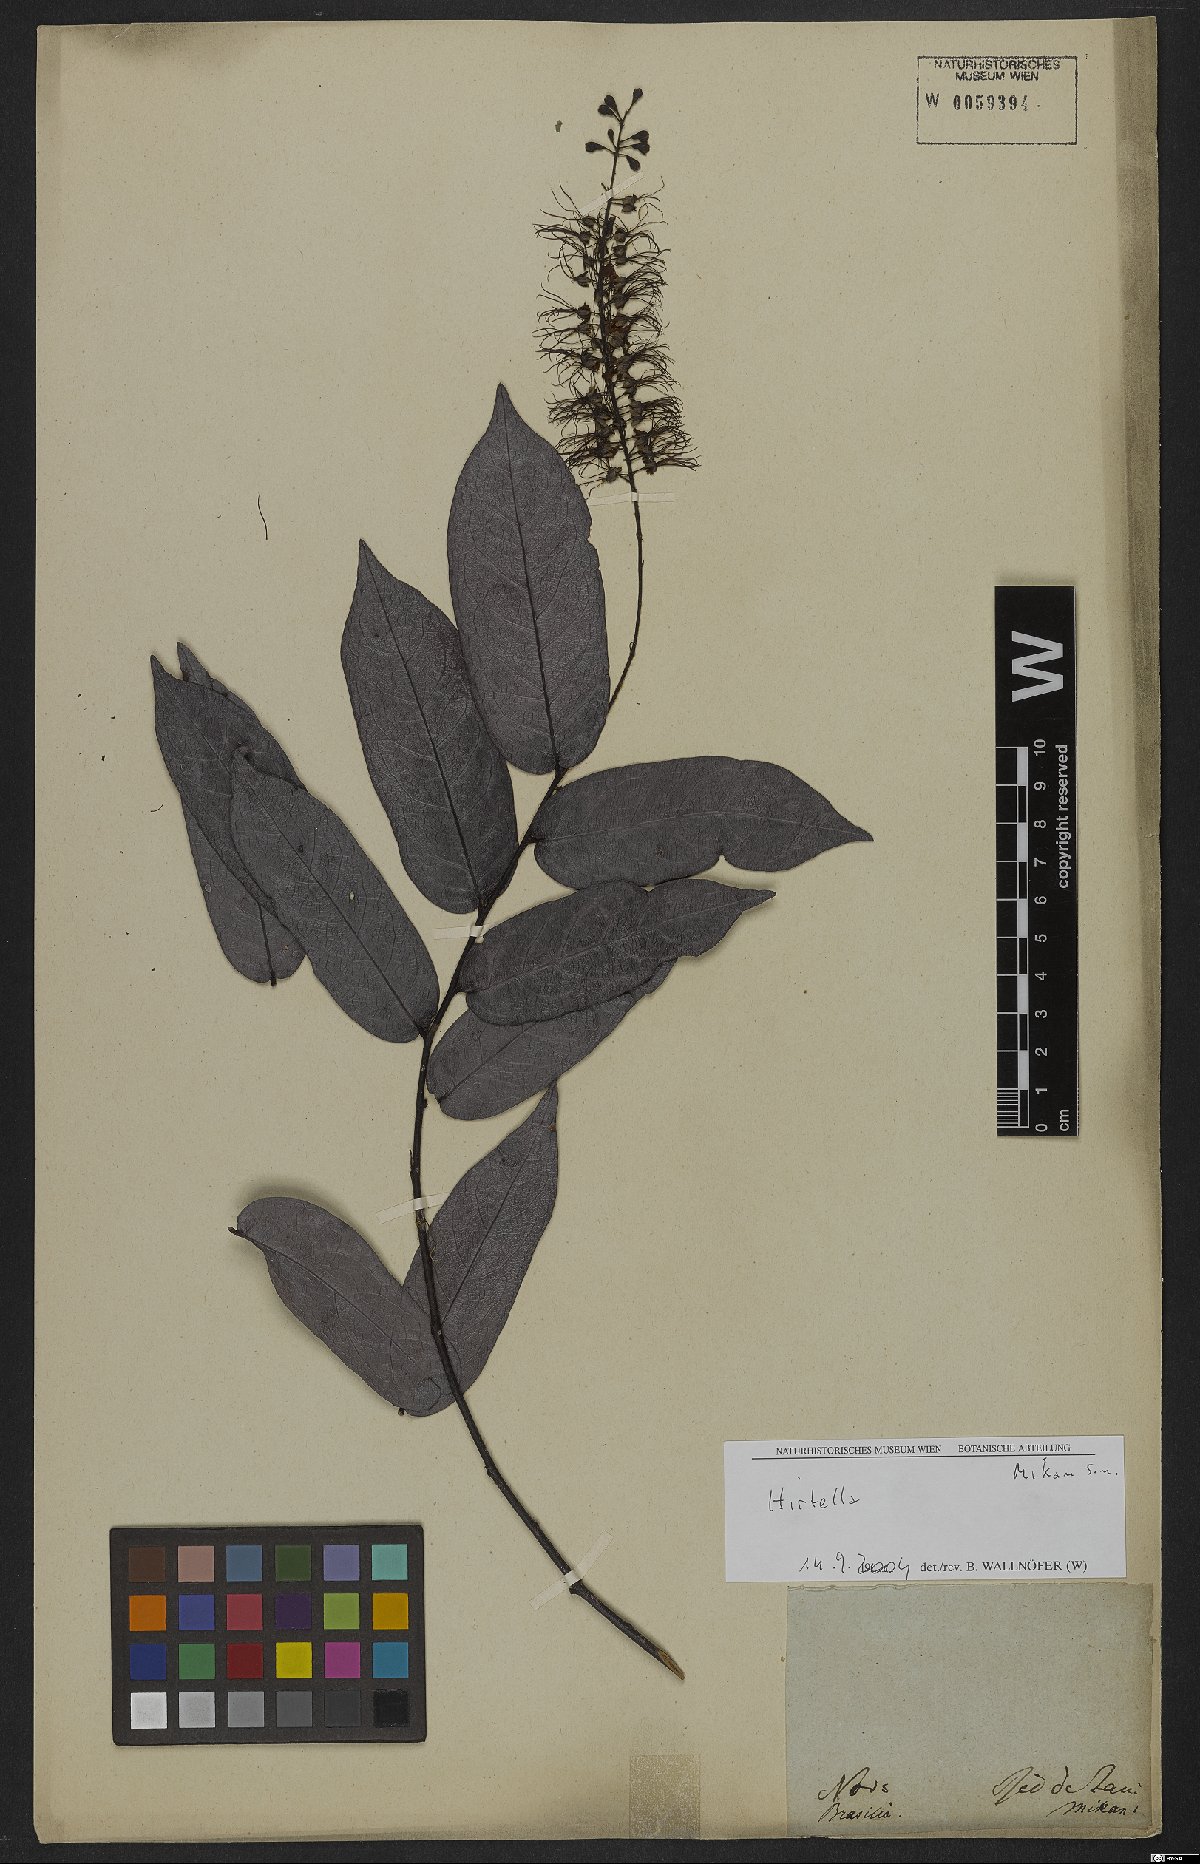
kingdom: Plantae
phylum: Tracheophyta
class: Magnoliopsida
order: Malpighiales
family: Chrysobalanaceae
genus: Hirtella
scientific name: Hirtella
